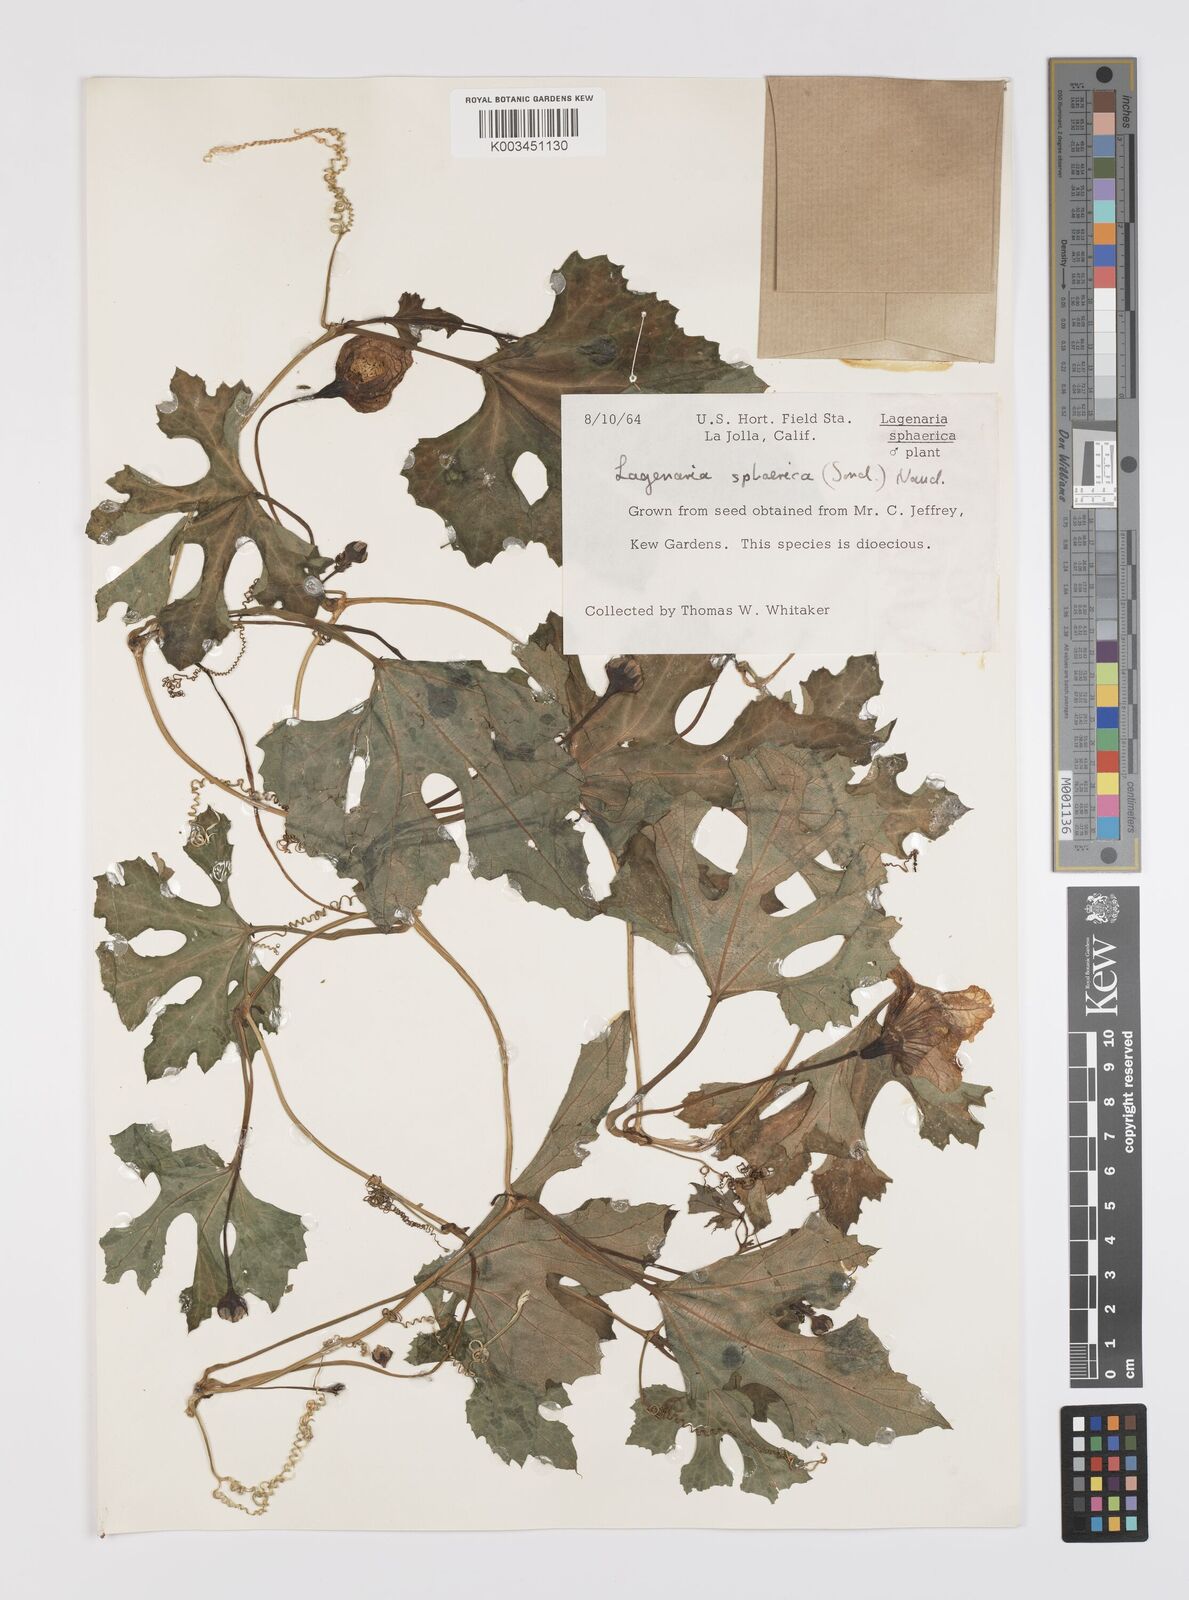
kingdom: Plantae
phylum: Tracheophyta
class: Magnoliopsida
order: Cucurbitales
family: Cucurbitaceae
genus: Lagenaria
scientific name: Lagenaria sphaerica
